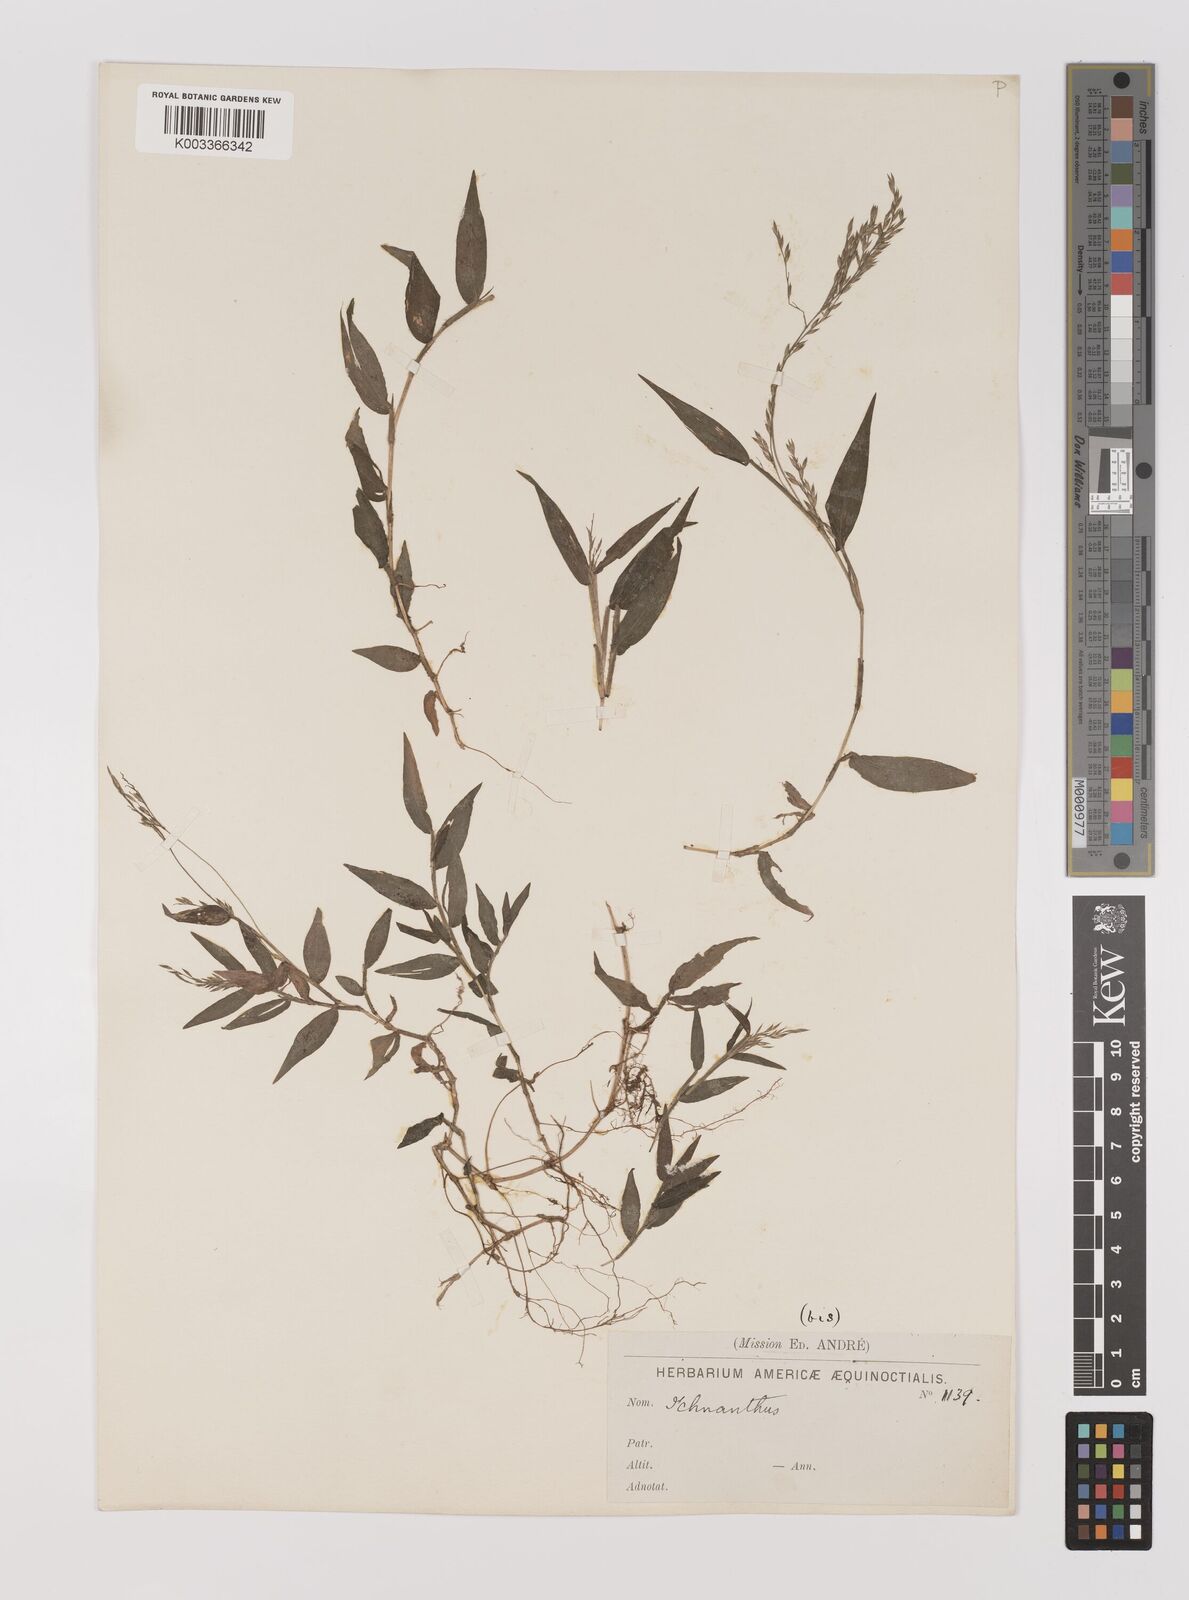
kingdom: Plantae
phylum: Tracheophyta
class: Liliopsida
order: Poales
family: Poaceae
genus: Ichnanthus
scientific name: Ichnanthus tenuis
